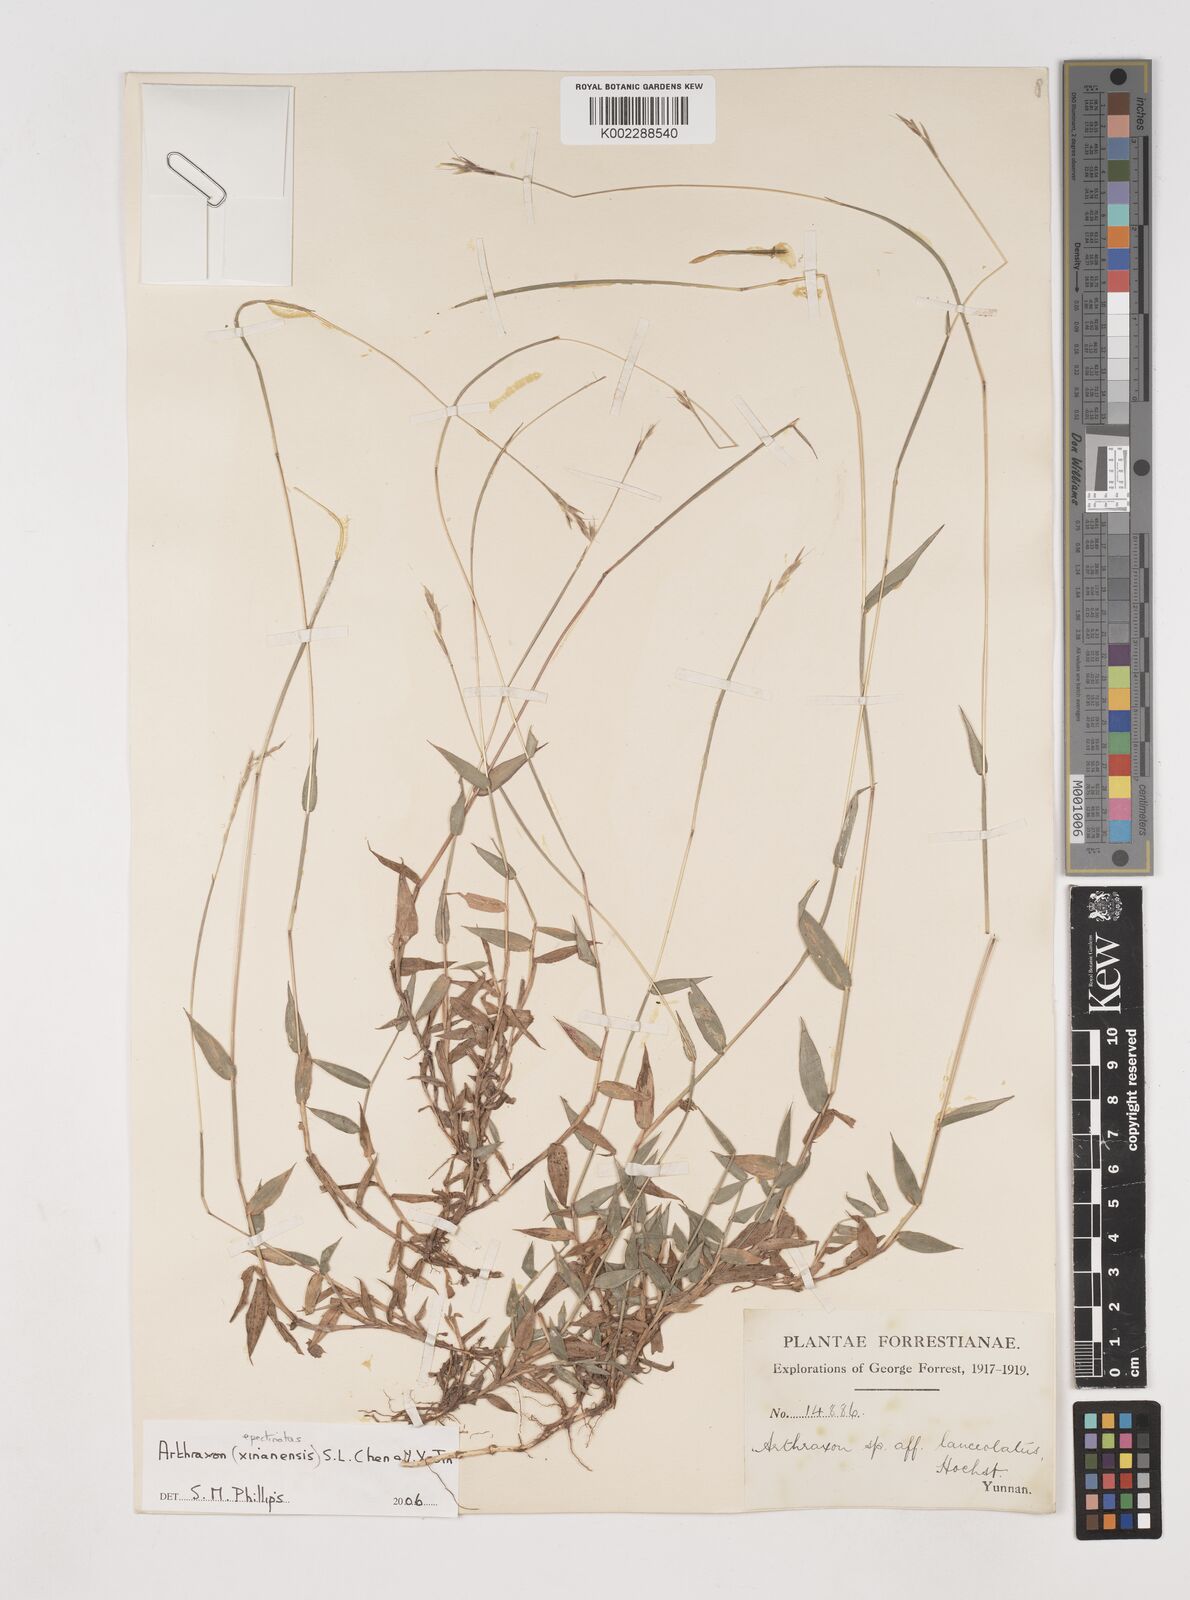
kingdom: Plantae
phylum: Tracheophyta
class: Liliopsida
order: Poales
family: Poaceae
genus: Arthraxon
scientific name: Arthraxon epectinatus
